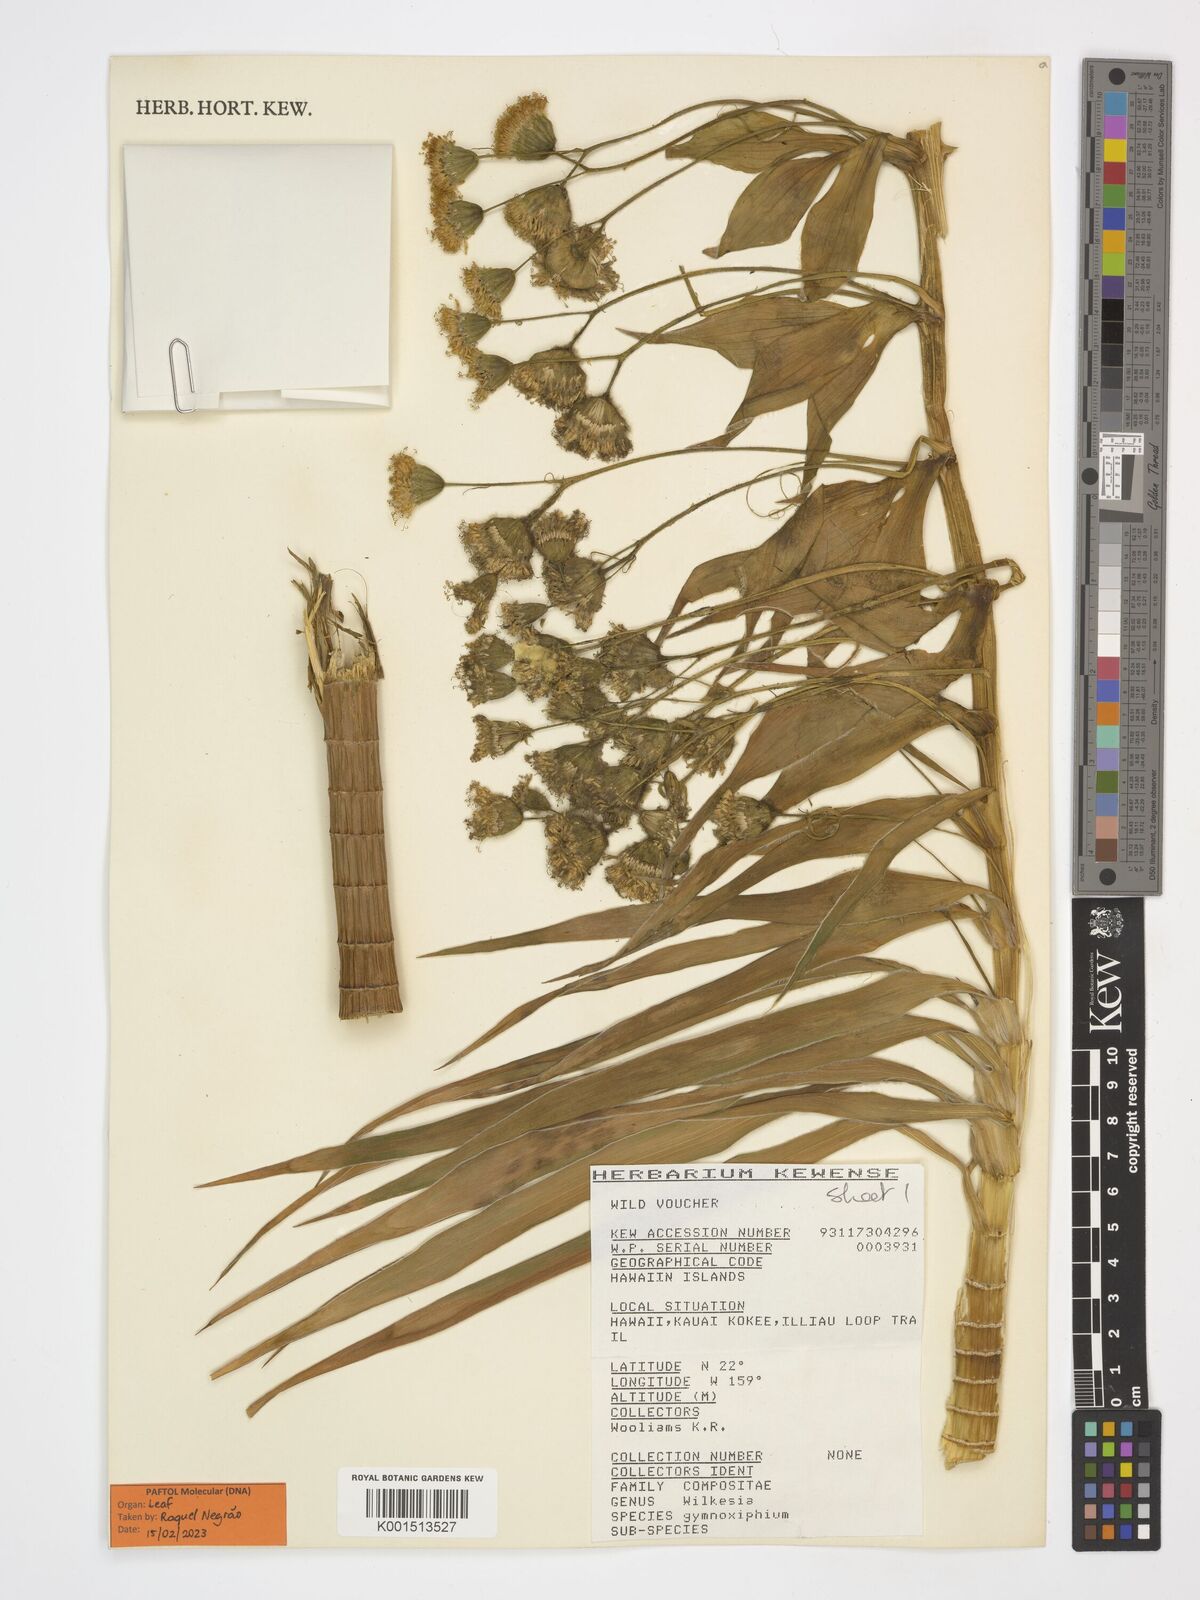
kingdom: Plantae
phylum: Tracheophyta
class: Magnoliopsida
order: Asterales
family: Asteraceae
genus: Wilkesia
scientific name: Wilkesia gymnoxiphium
